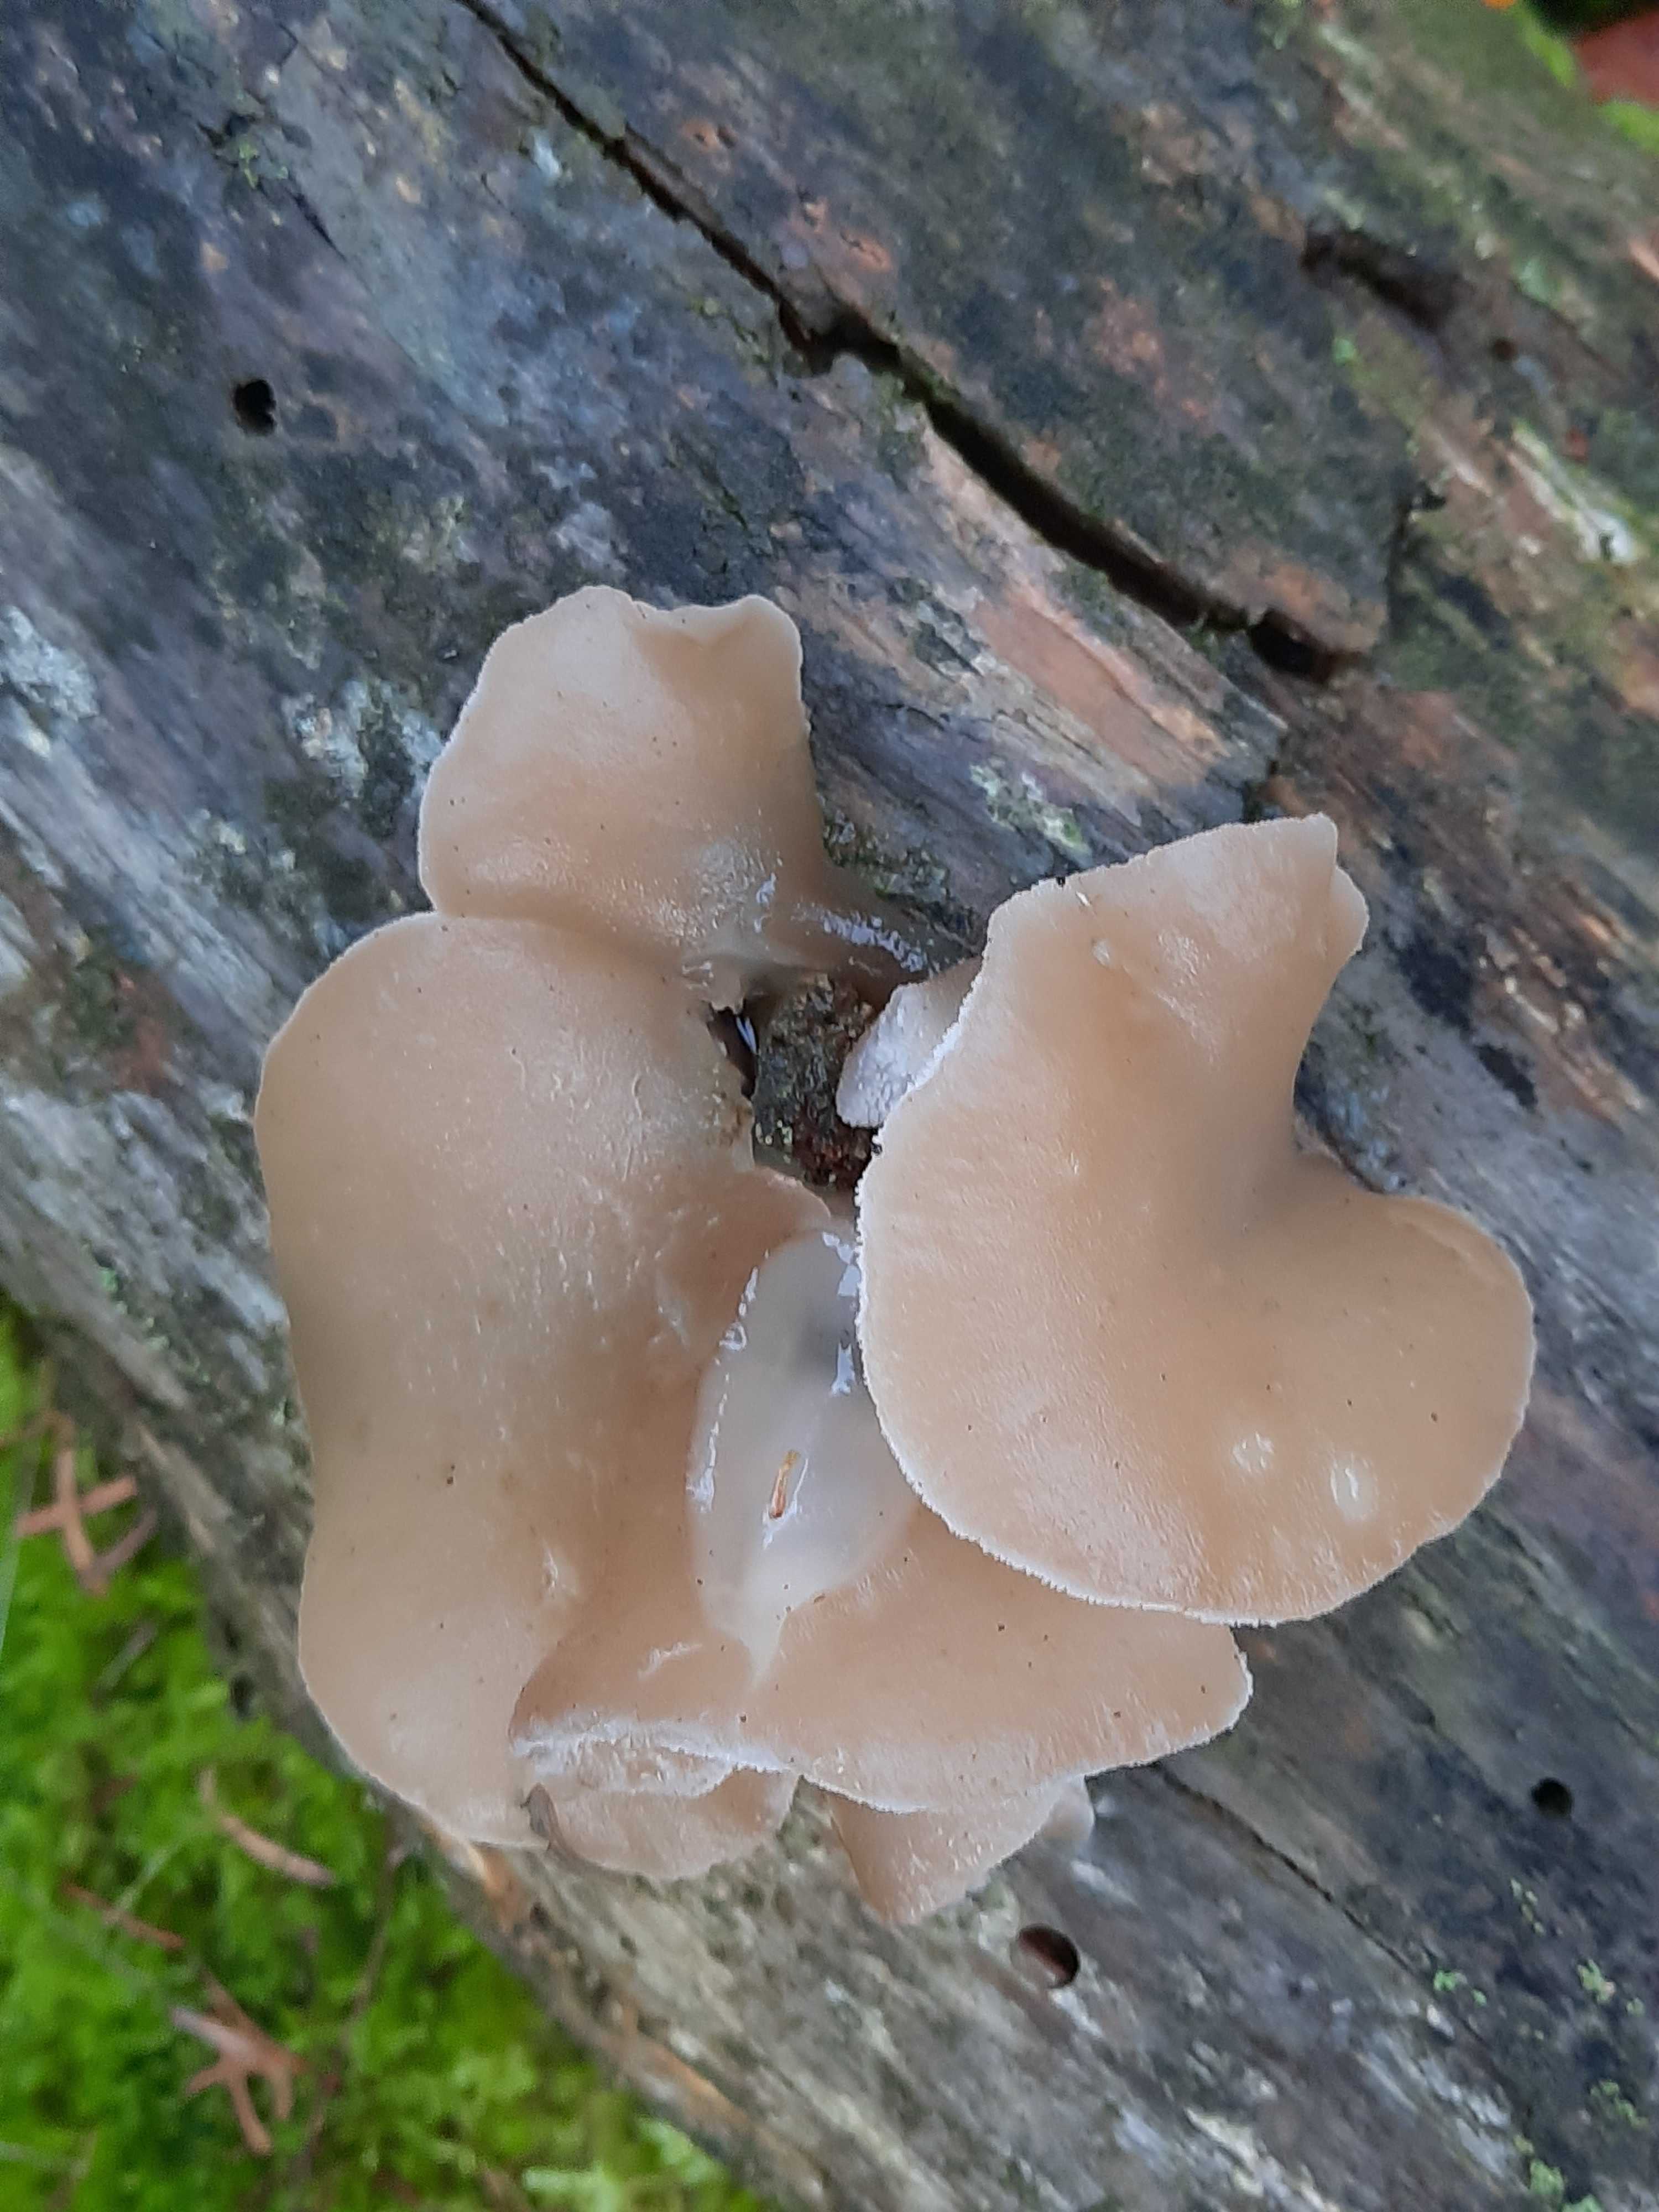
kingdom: Fungi
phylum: Basidiomycota
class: Agaricomycetes
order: Auriculariales
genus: Pseudohydnum
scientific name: Pseudohydnum gelatinosum
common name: bævretand
